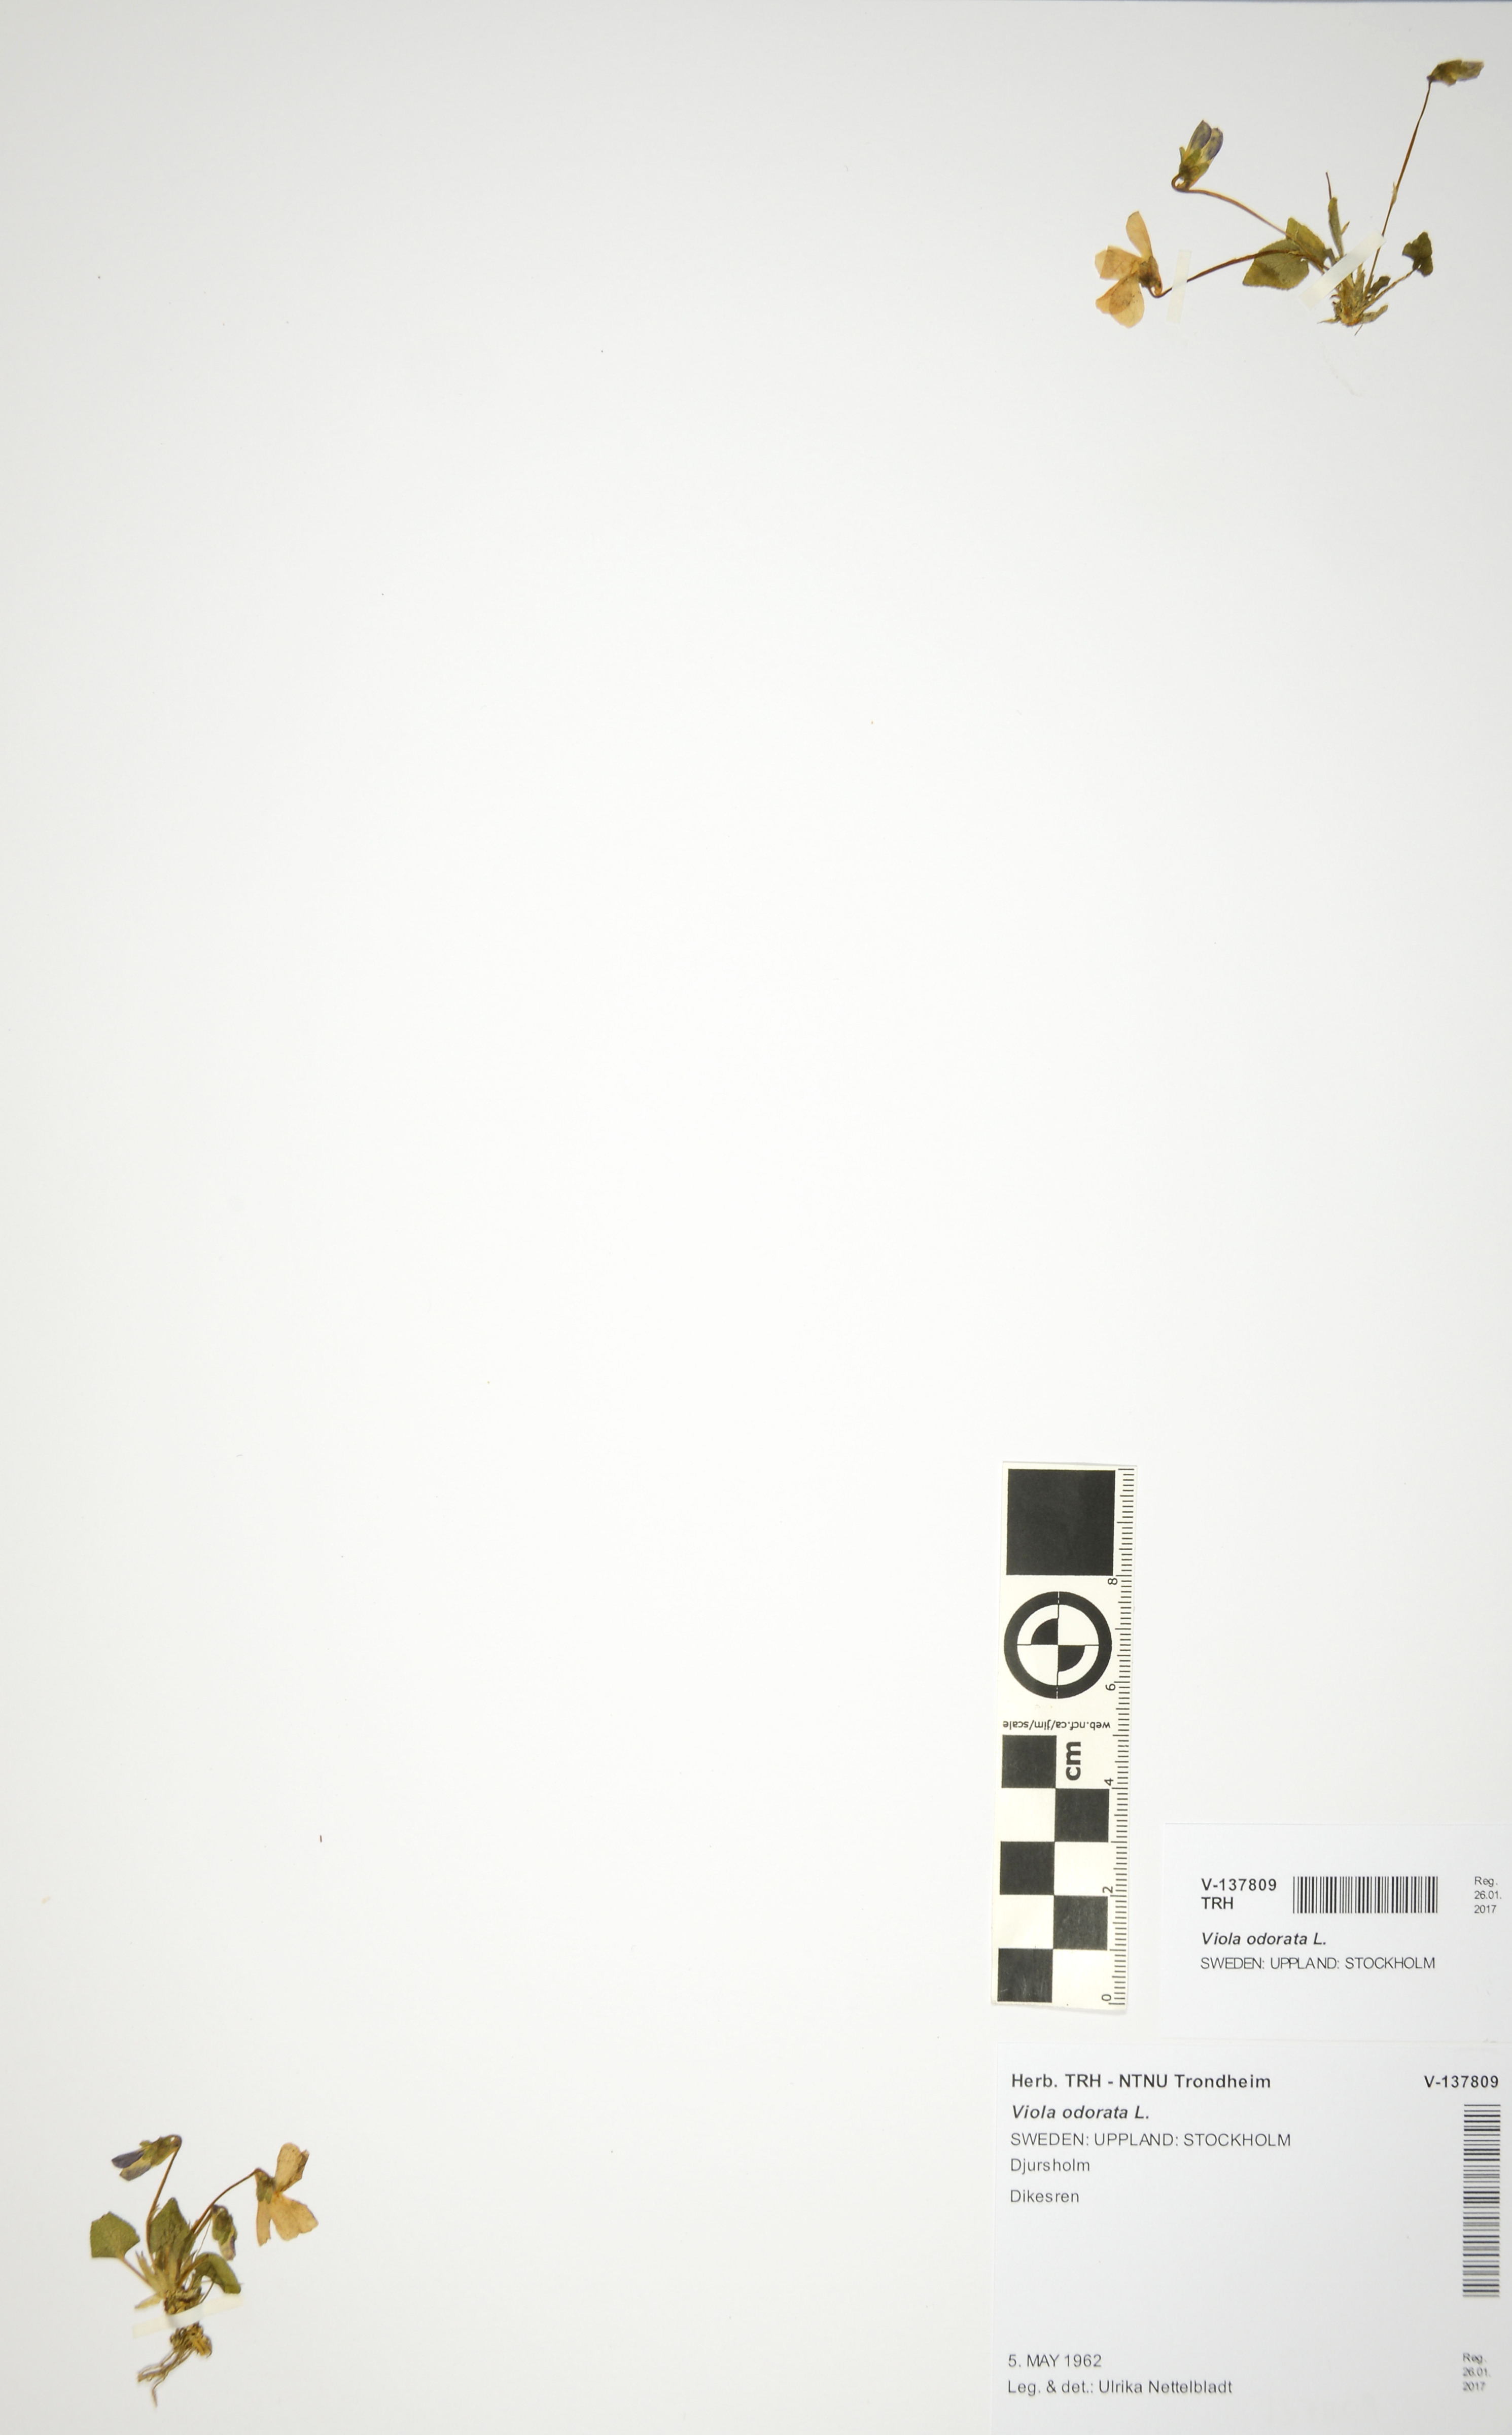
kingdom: Plantae
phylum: Tracheophyta
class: Magnoliopsida
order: Malpighiales
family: Violaceae
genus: Viola
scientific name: Viola odorata
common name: Sweet violet
